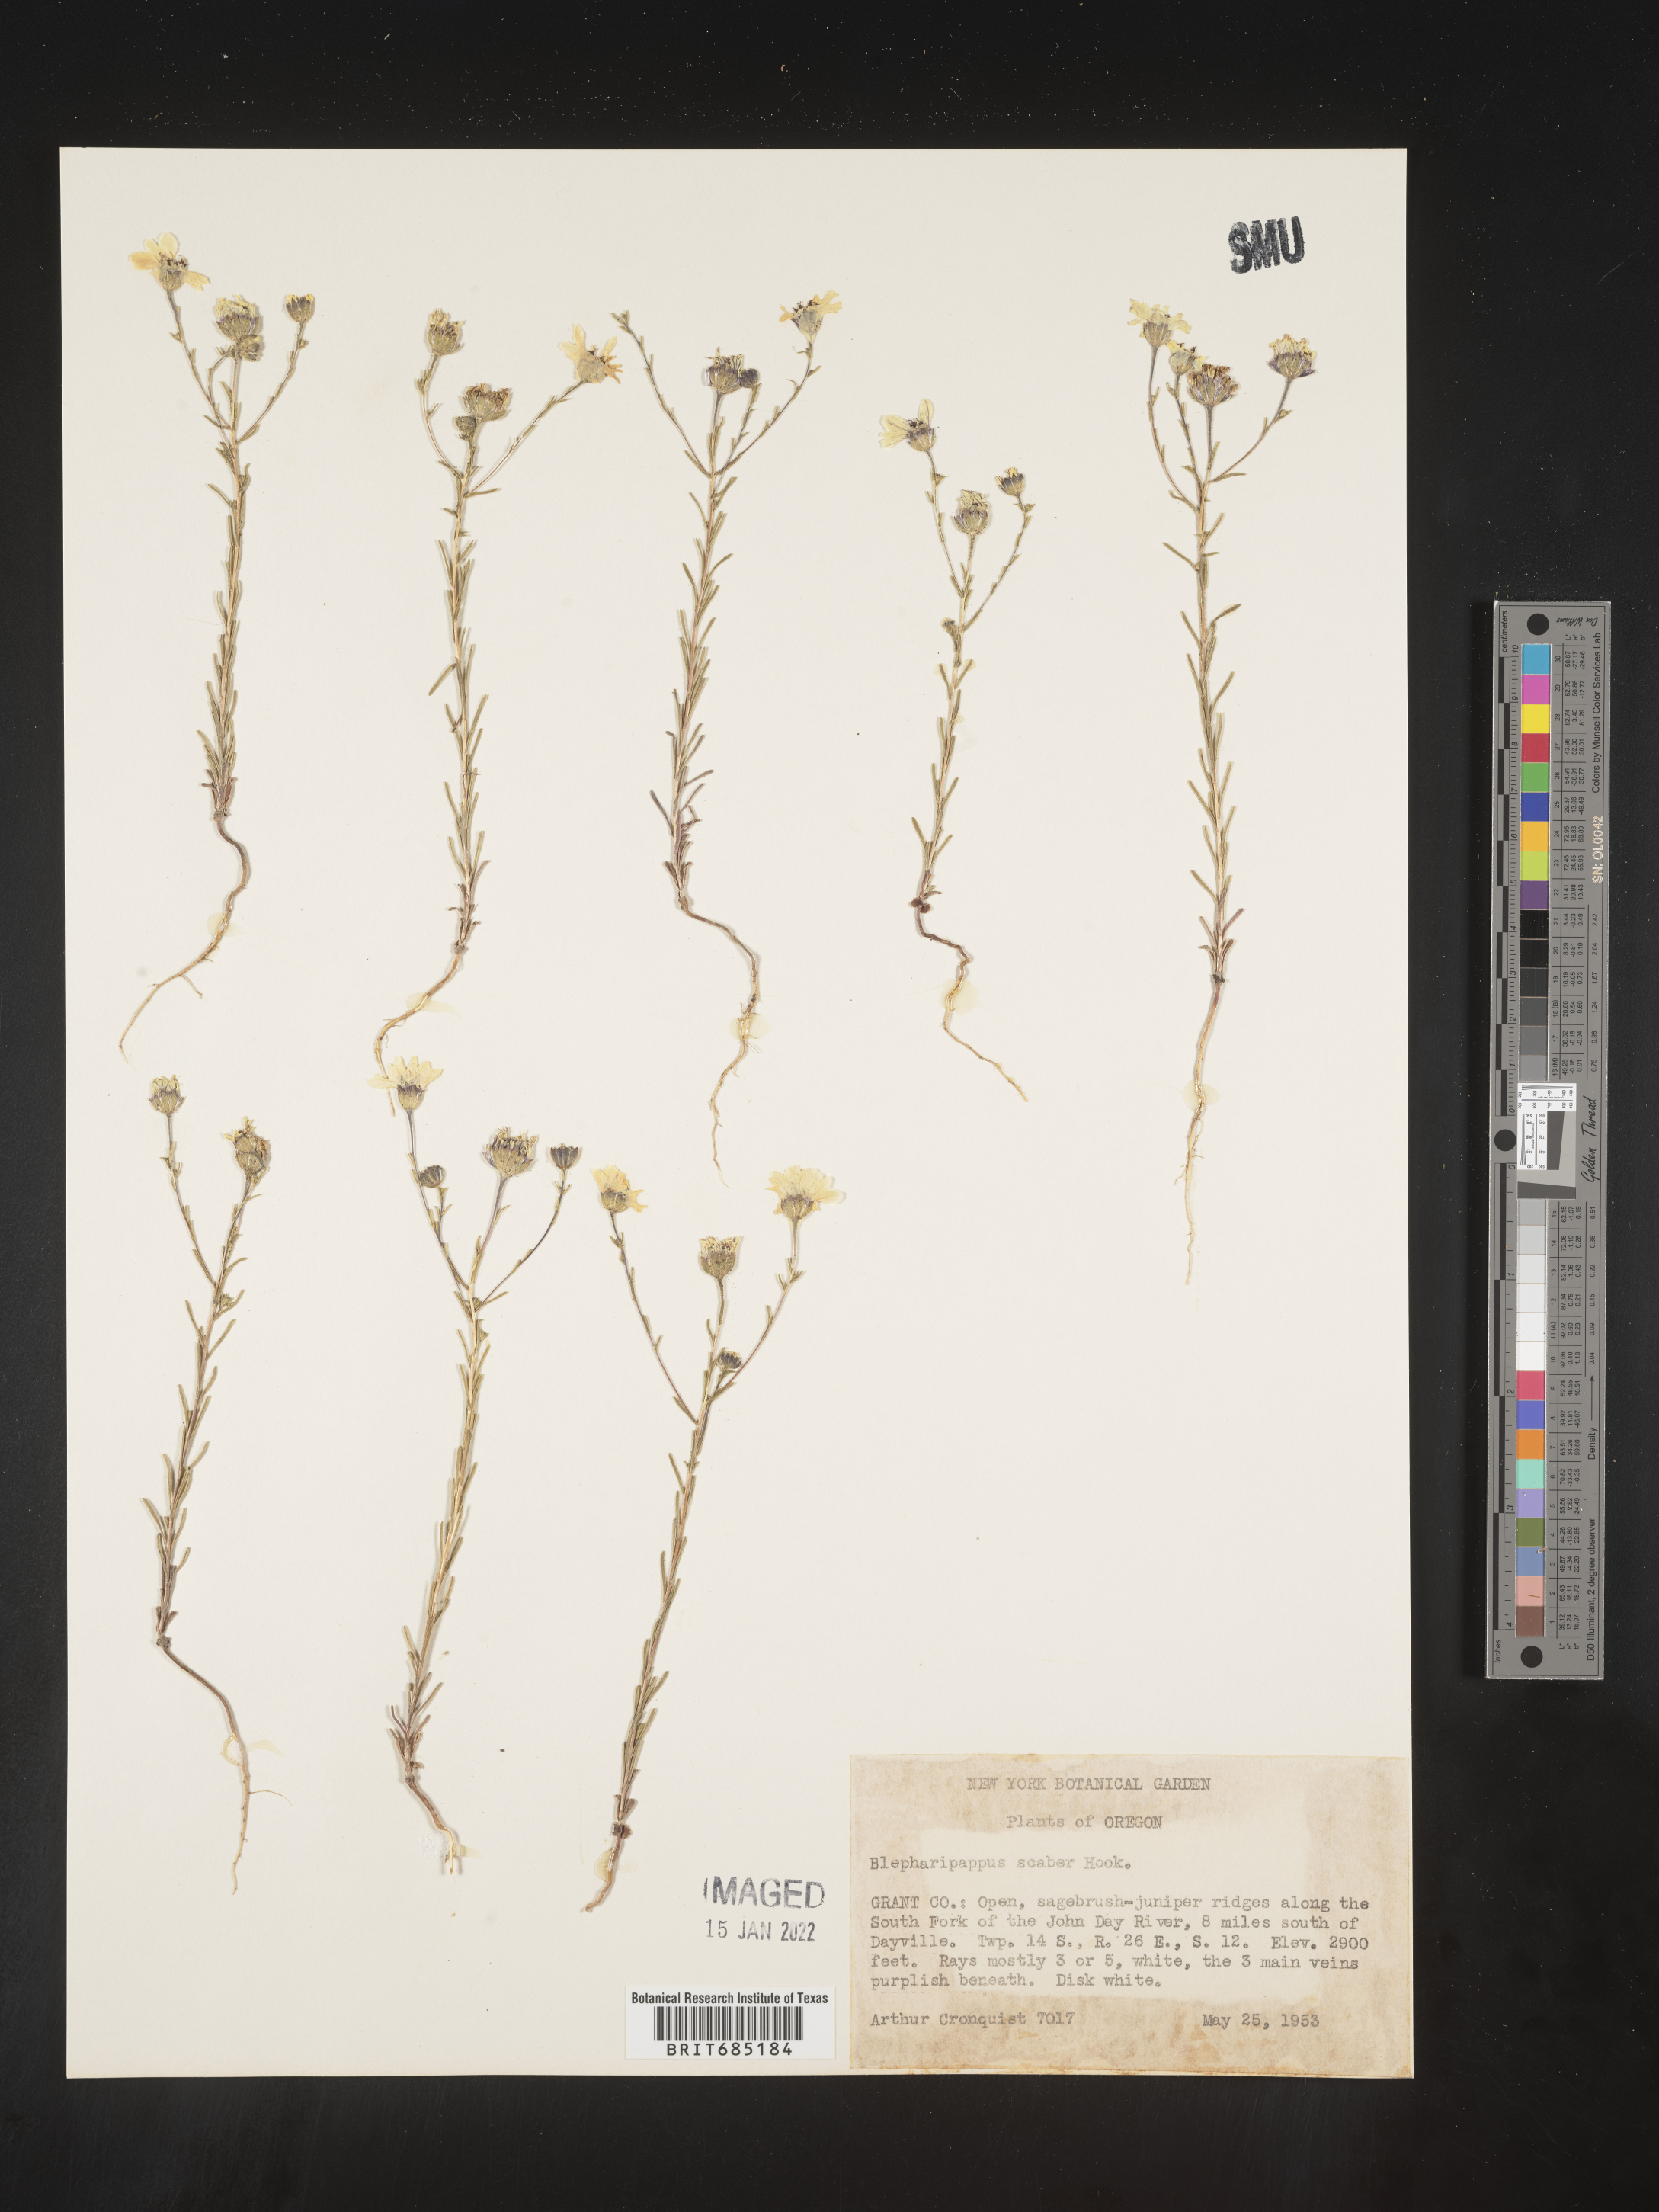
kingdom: Plantae
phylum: Tracheophyta
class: Magnoliopsida
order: Asterales
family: Asteraceae
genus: Blepharipappus
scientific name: Blepharipappus
